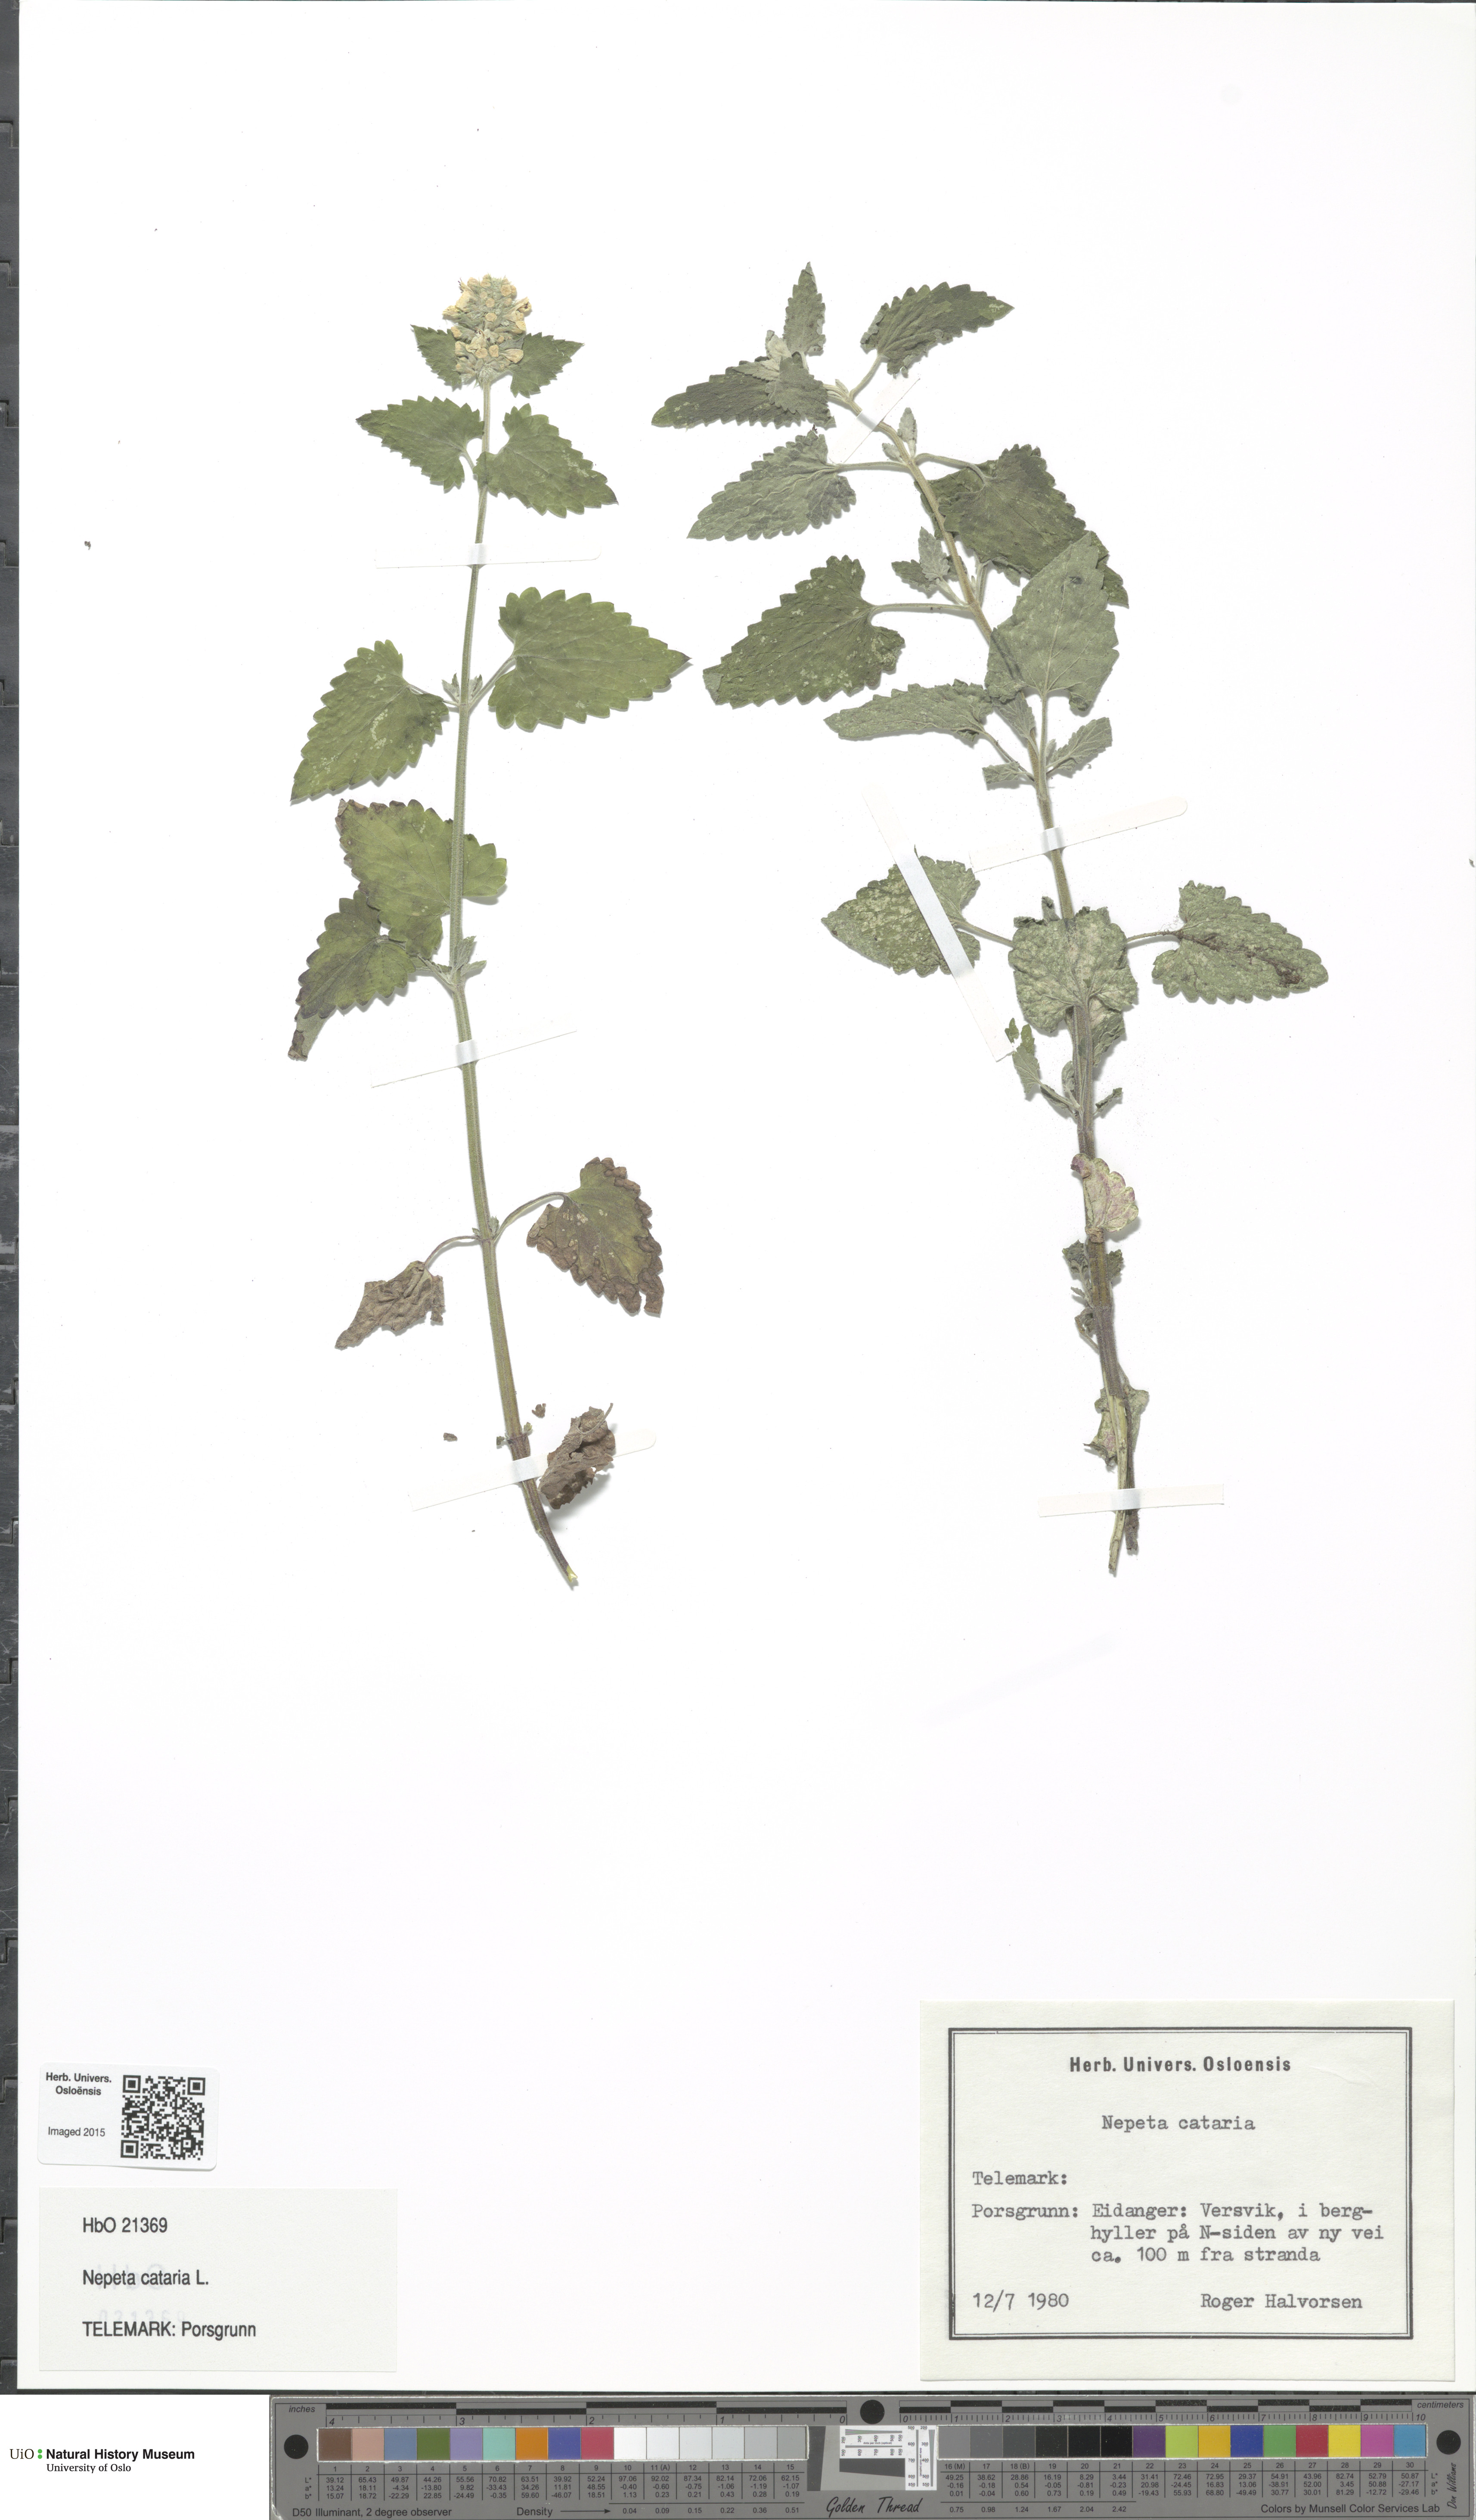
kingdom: Plantae
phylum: Tracheophyta
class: Magnoliopsida
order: Lamiales
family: Lamiaceae
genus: Nepeta
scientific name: Nepeta cataria
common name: Catnip
